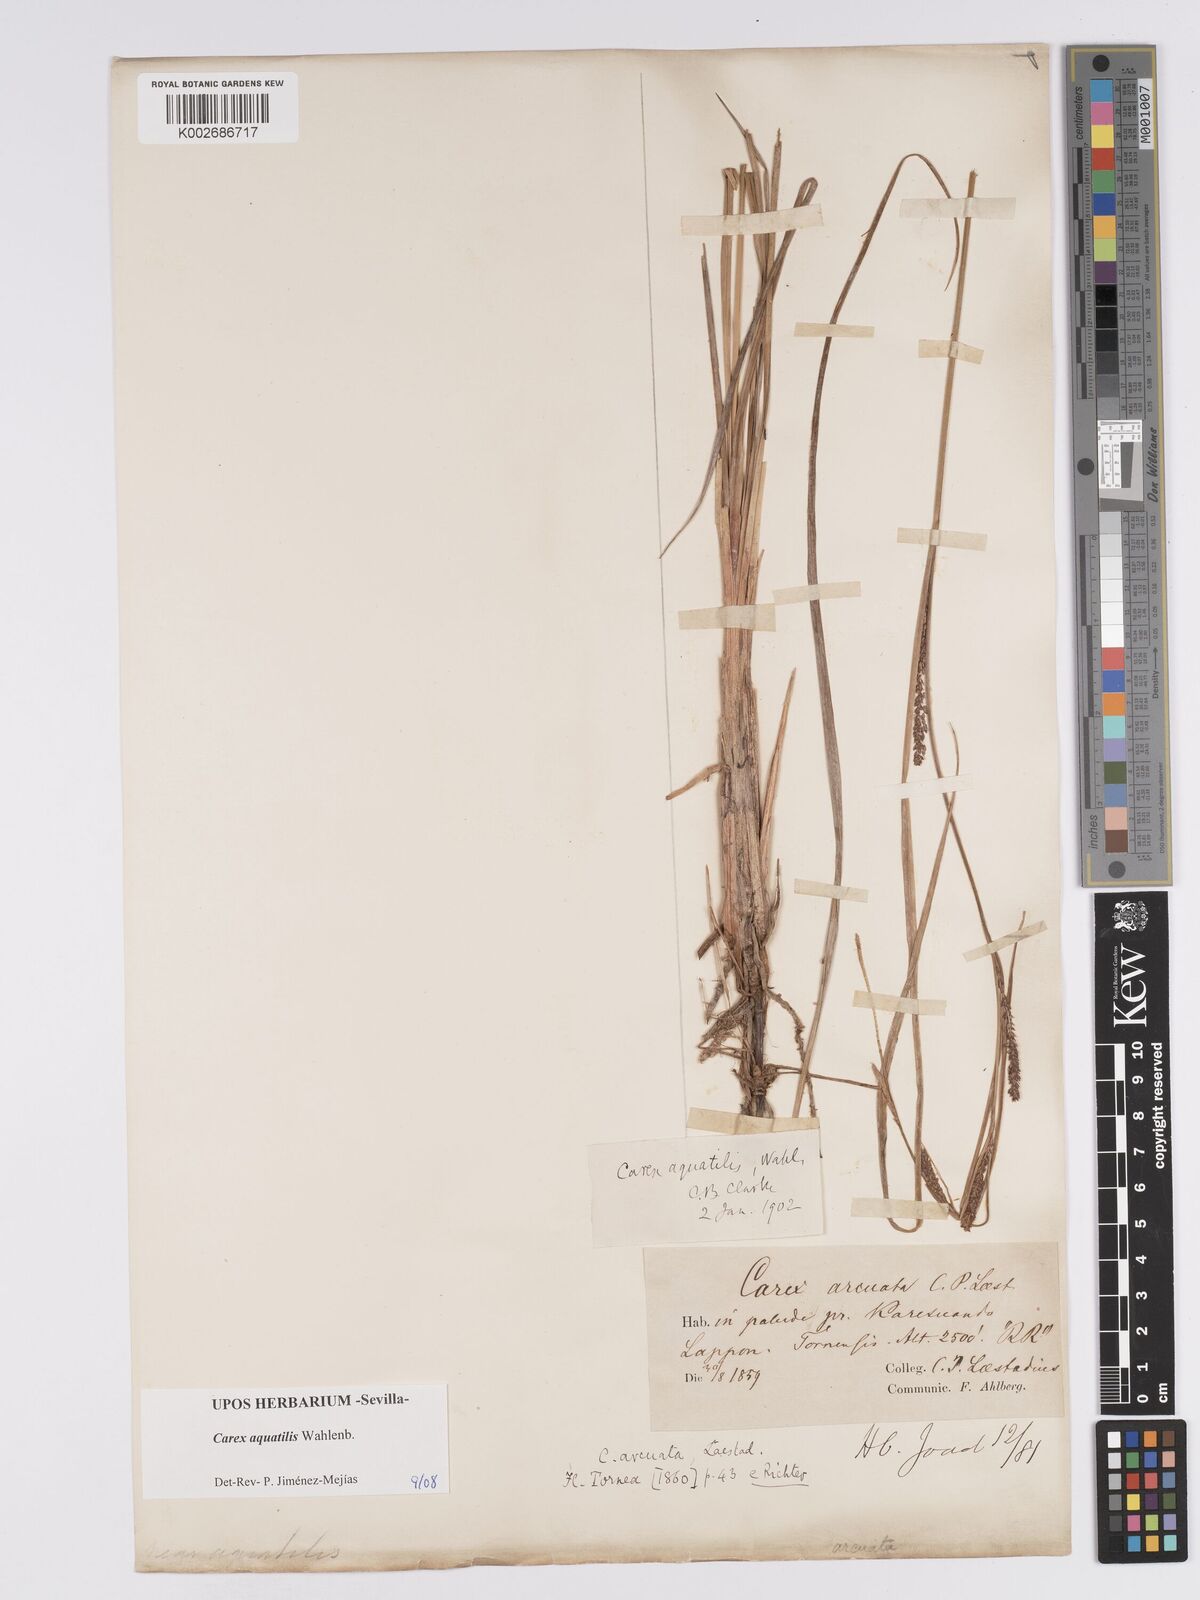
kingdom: Plantae
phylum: Tracheophyta
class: Liliopsida
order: Poales
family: Cyperaceae
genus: Carex
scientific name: Carex aquatilis
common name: Water sedge
